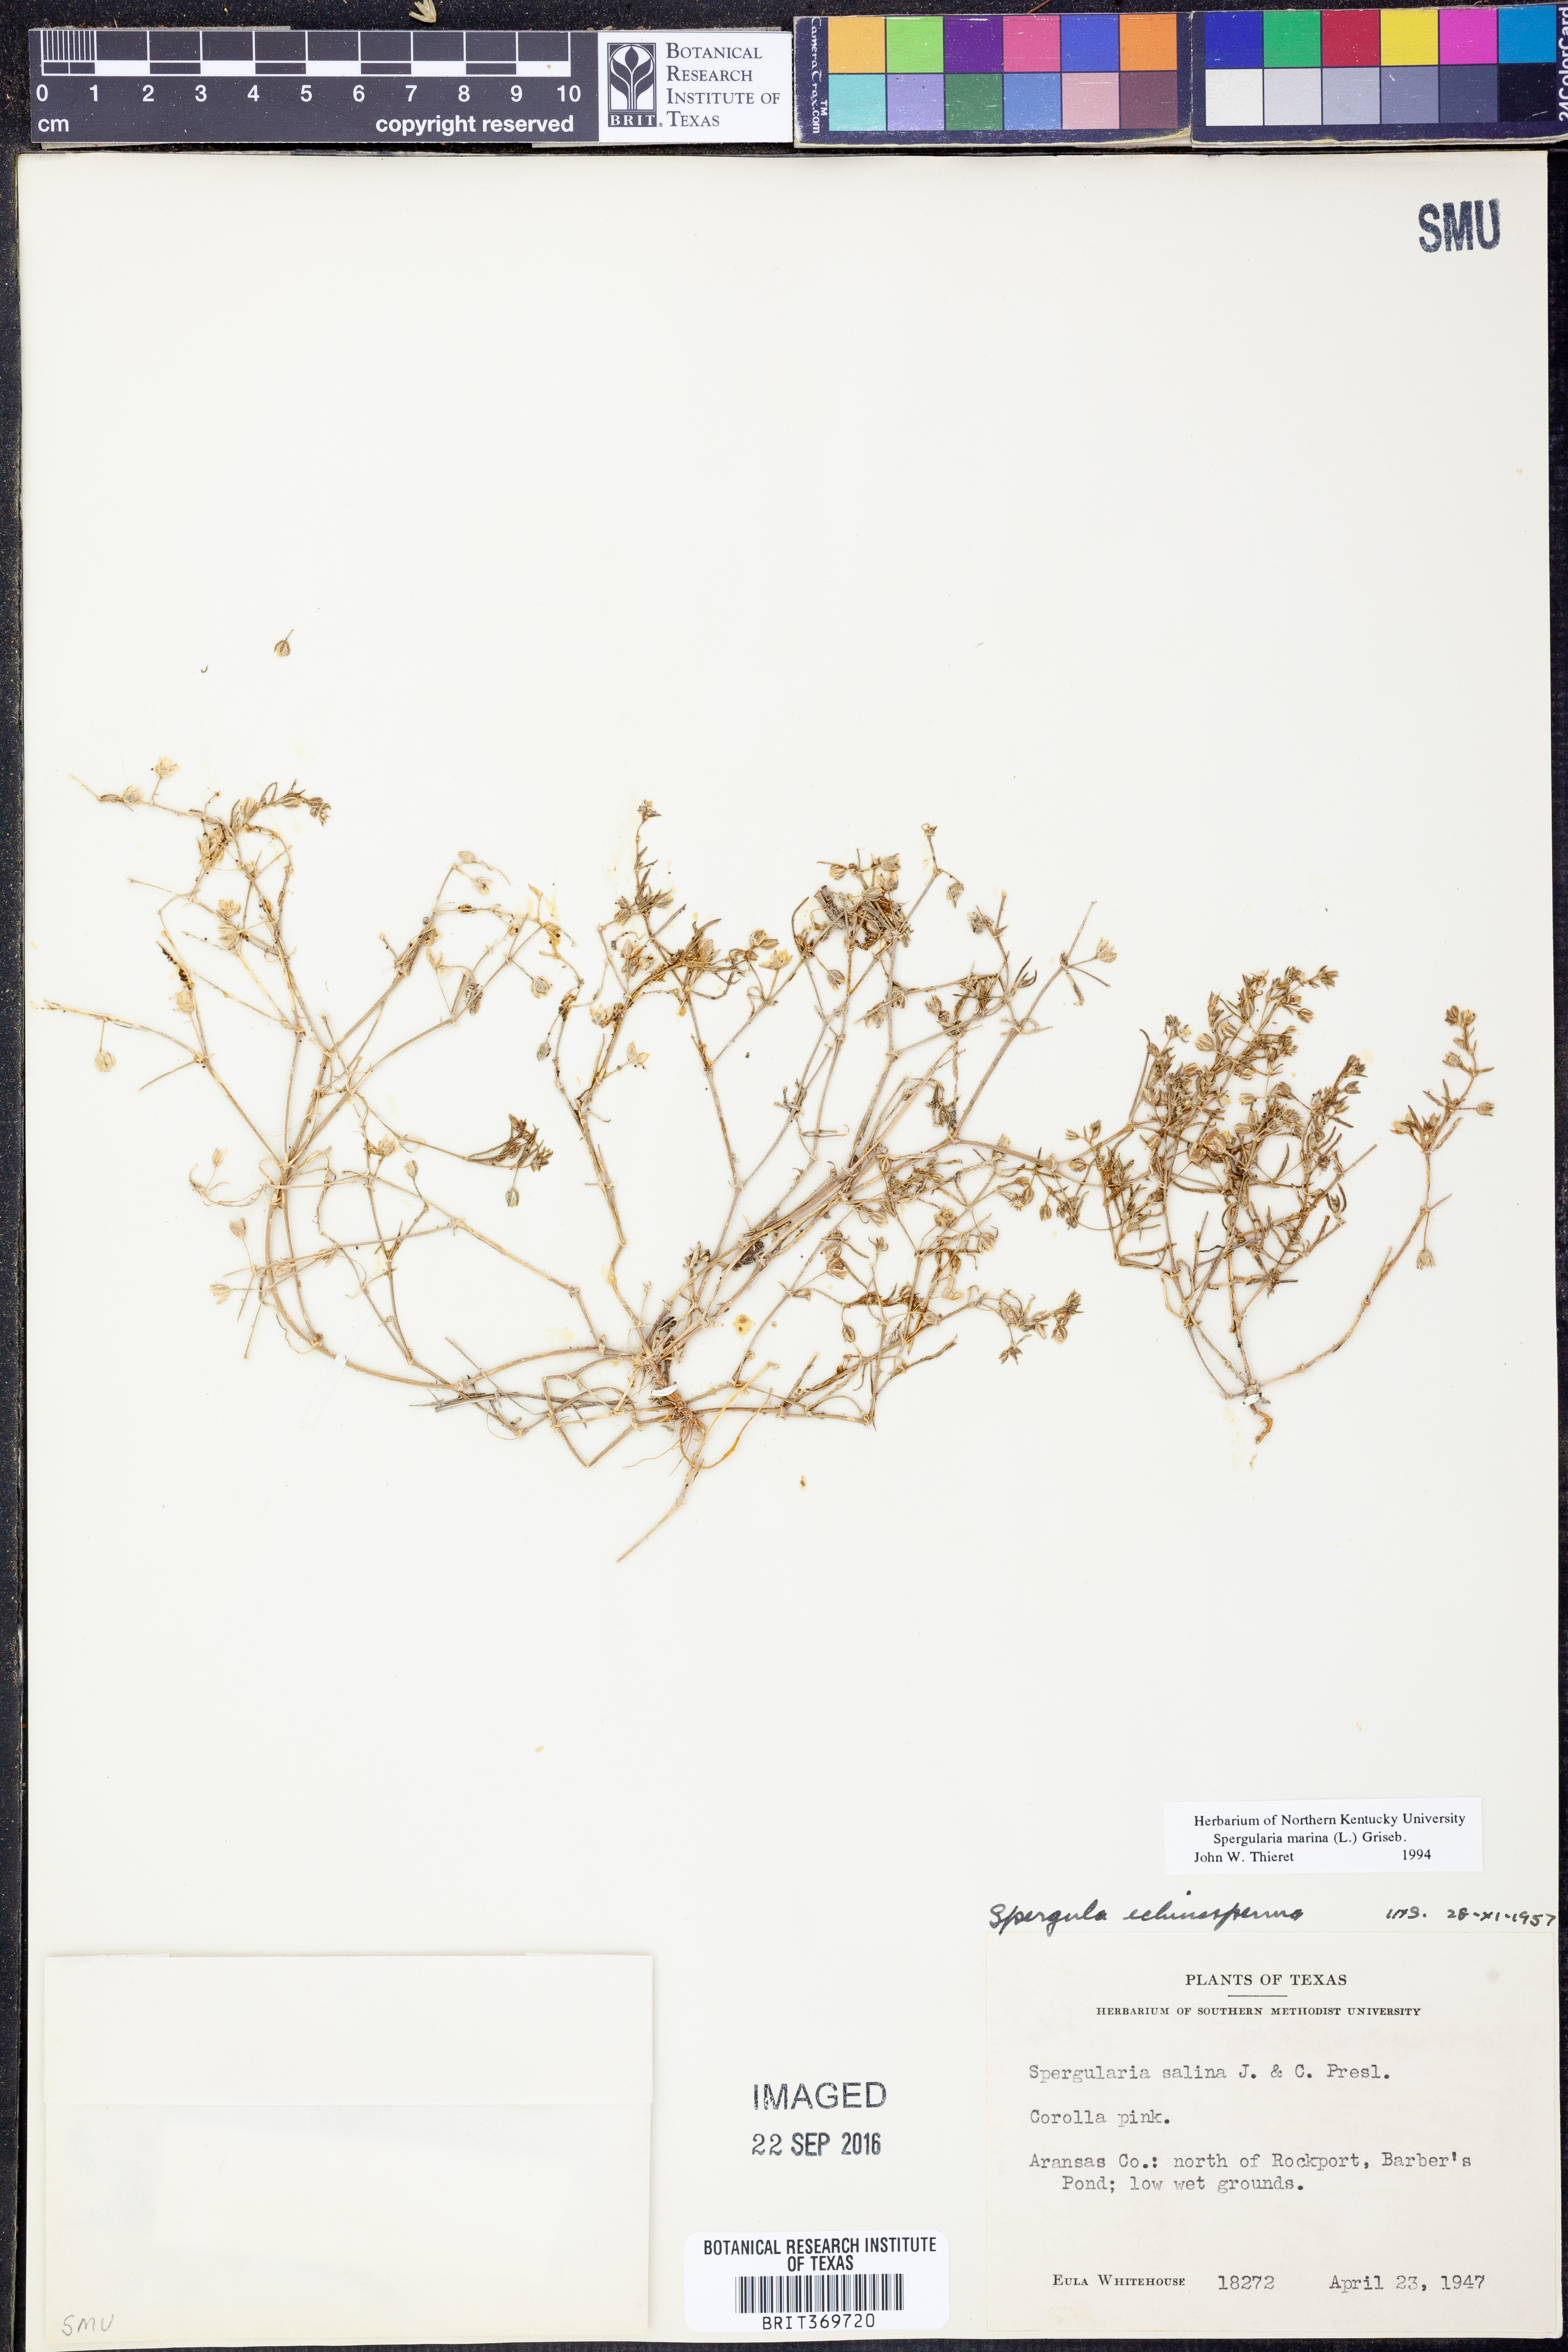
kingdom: Plantae
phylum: Tracheophyta
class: Magnoliopsida
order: Caryophyllales
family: Caryophyllaceae
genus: Spergularia
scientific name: Spergularia marina
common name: Lesser sea-spurrey
